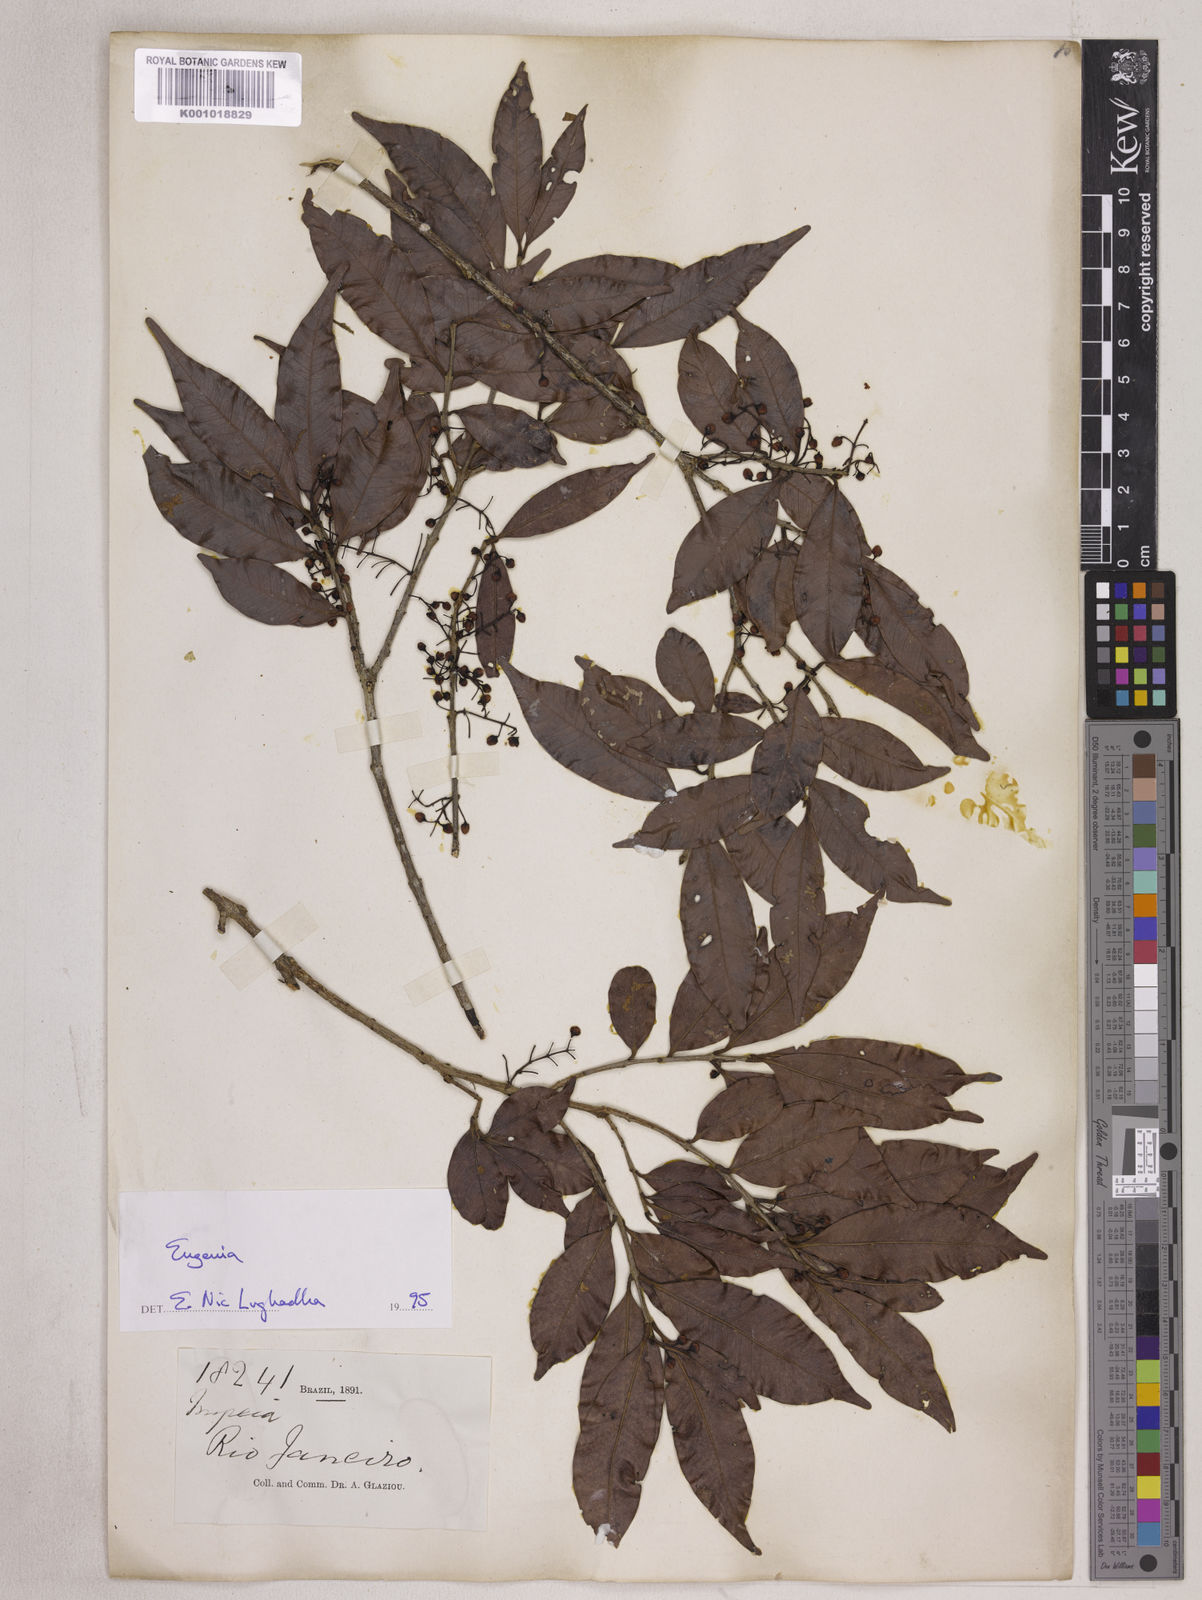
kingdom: Plantae
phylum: Tracheophyta
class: Magnoliopsida
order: Myrtales
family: Myrtaceae
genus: Eugenia
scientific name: Eugenia convexinervia
